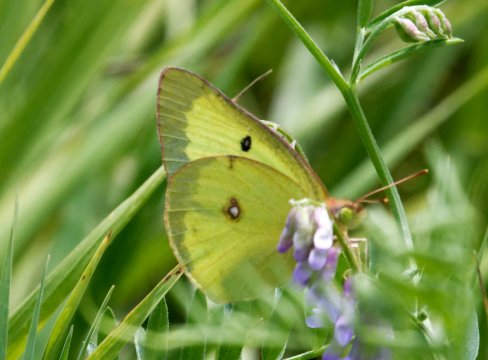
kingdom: Animalia
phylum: Arthropoda
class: Insecta
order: Lepidoptera
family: Pieridae
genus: Colias
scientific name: Colias philodice
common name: Clouded Sulphur
